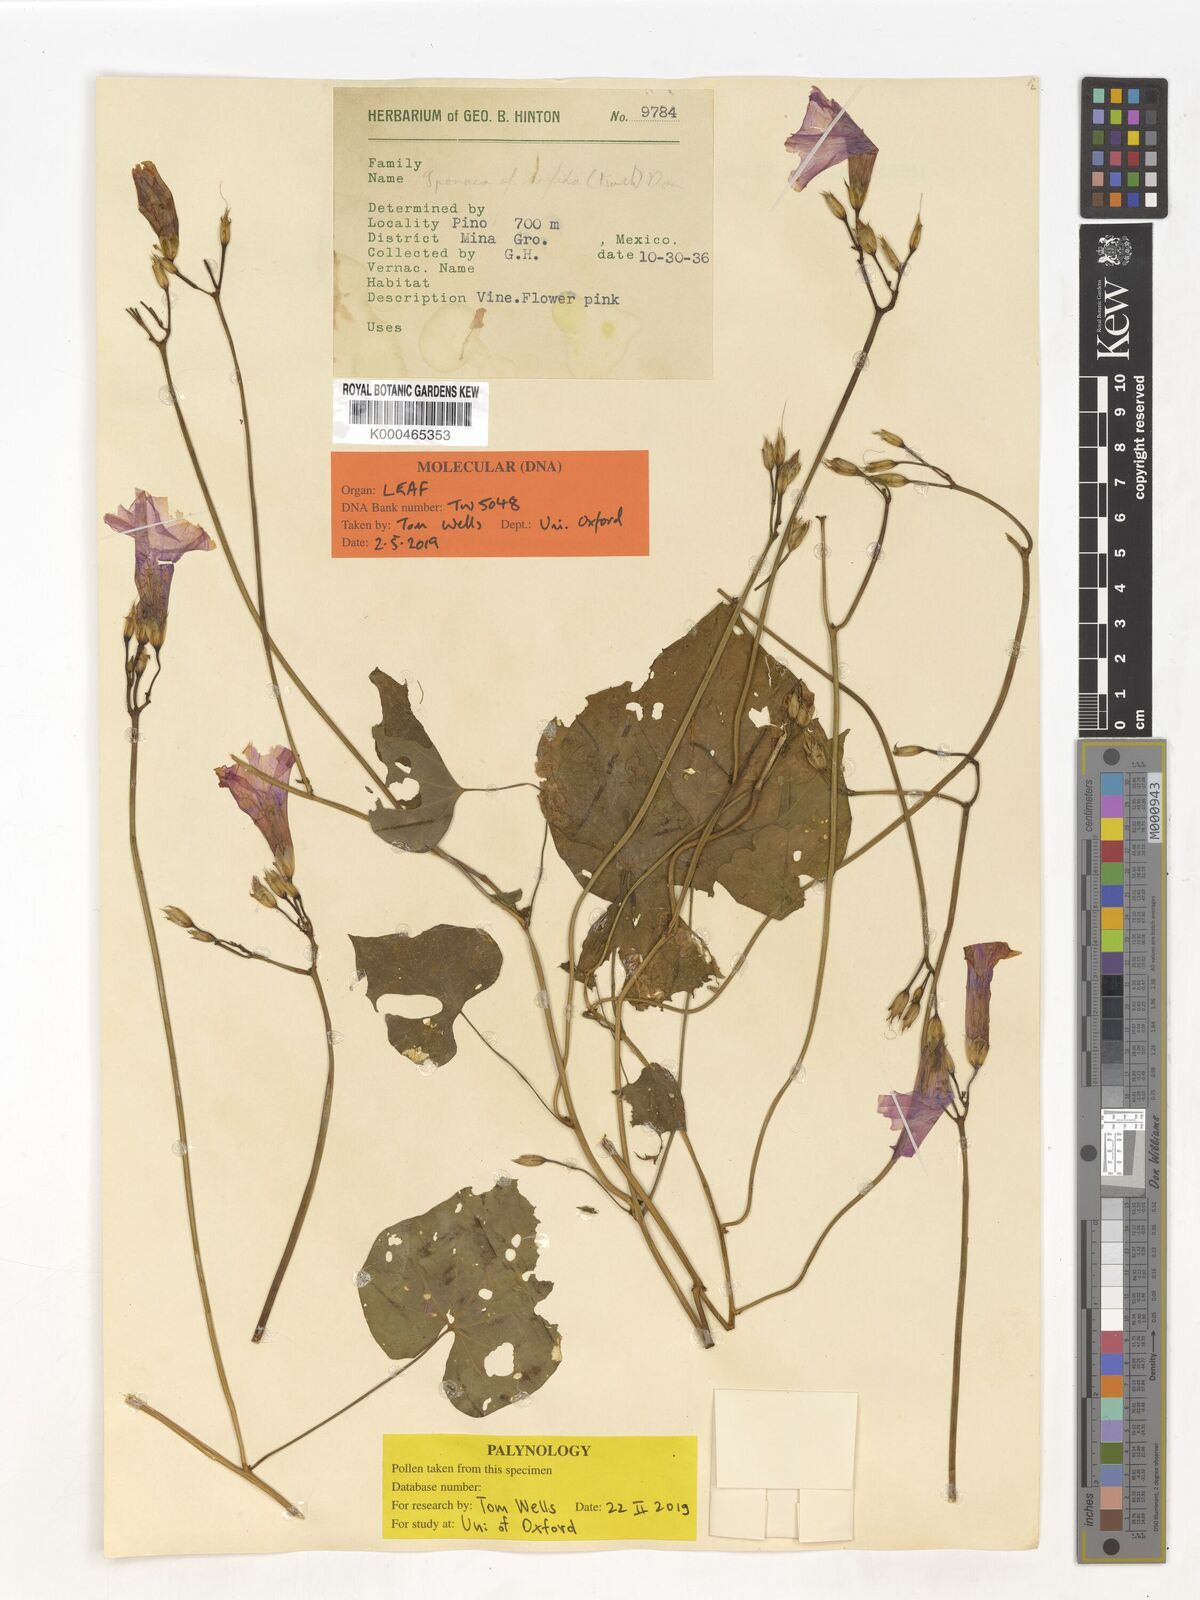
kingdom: Plantae
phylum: Tracheophyta
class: Magnoliopsida
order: Solanales
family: Convolvulaceae
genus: Ipomoea
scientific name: Ipomoea trifida
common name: Cotton morningglory
